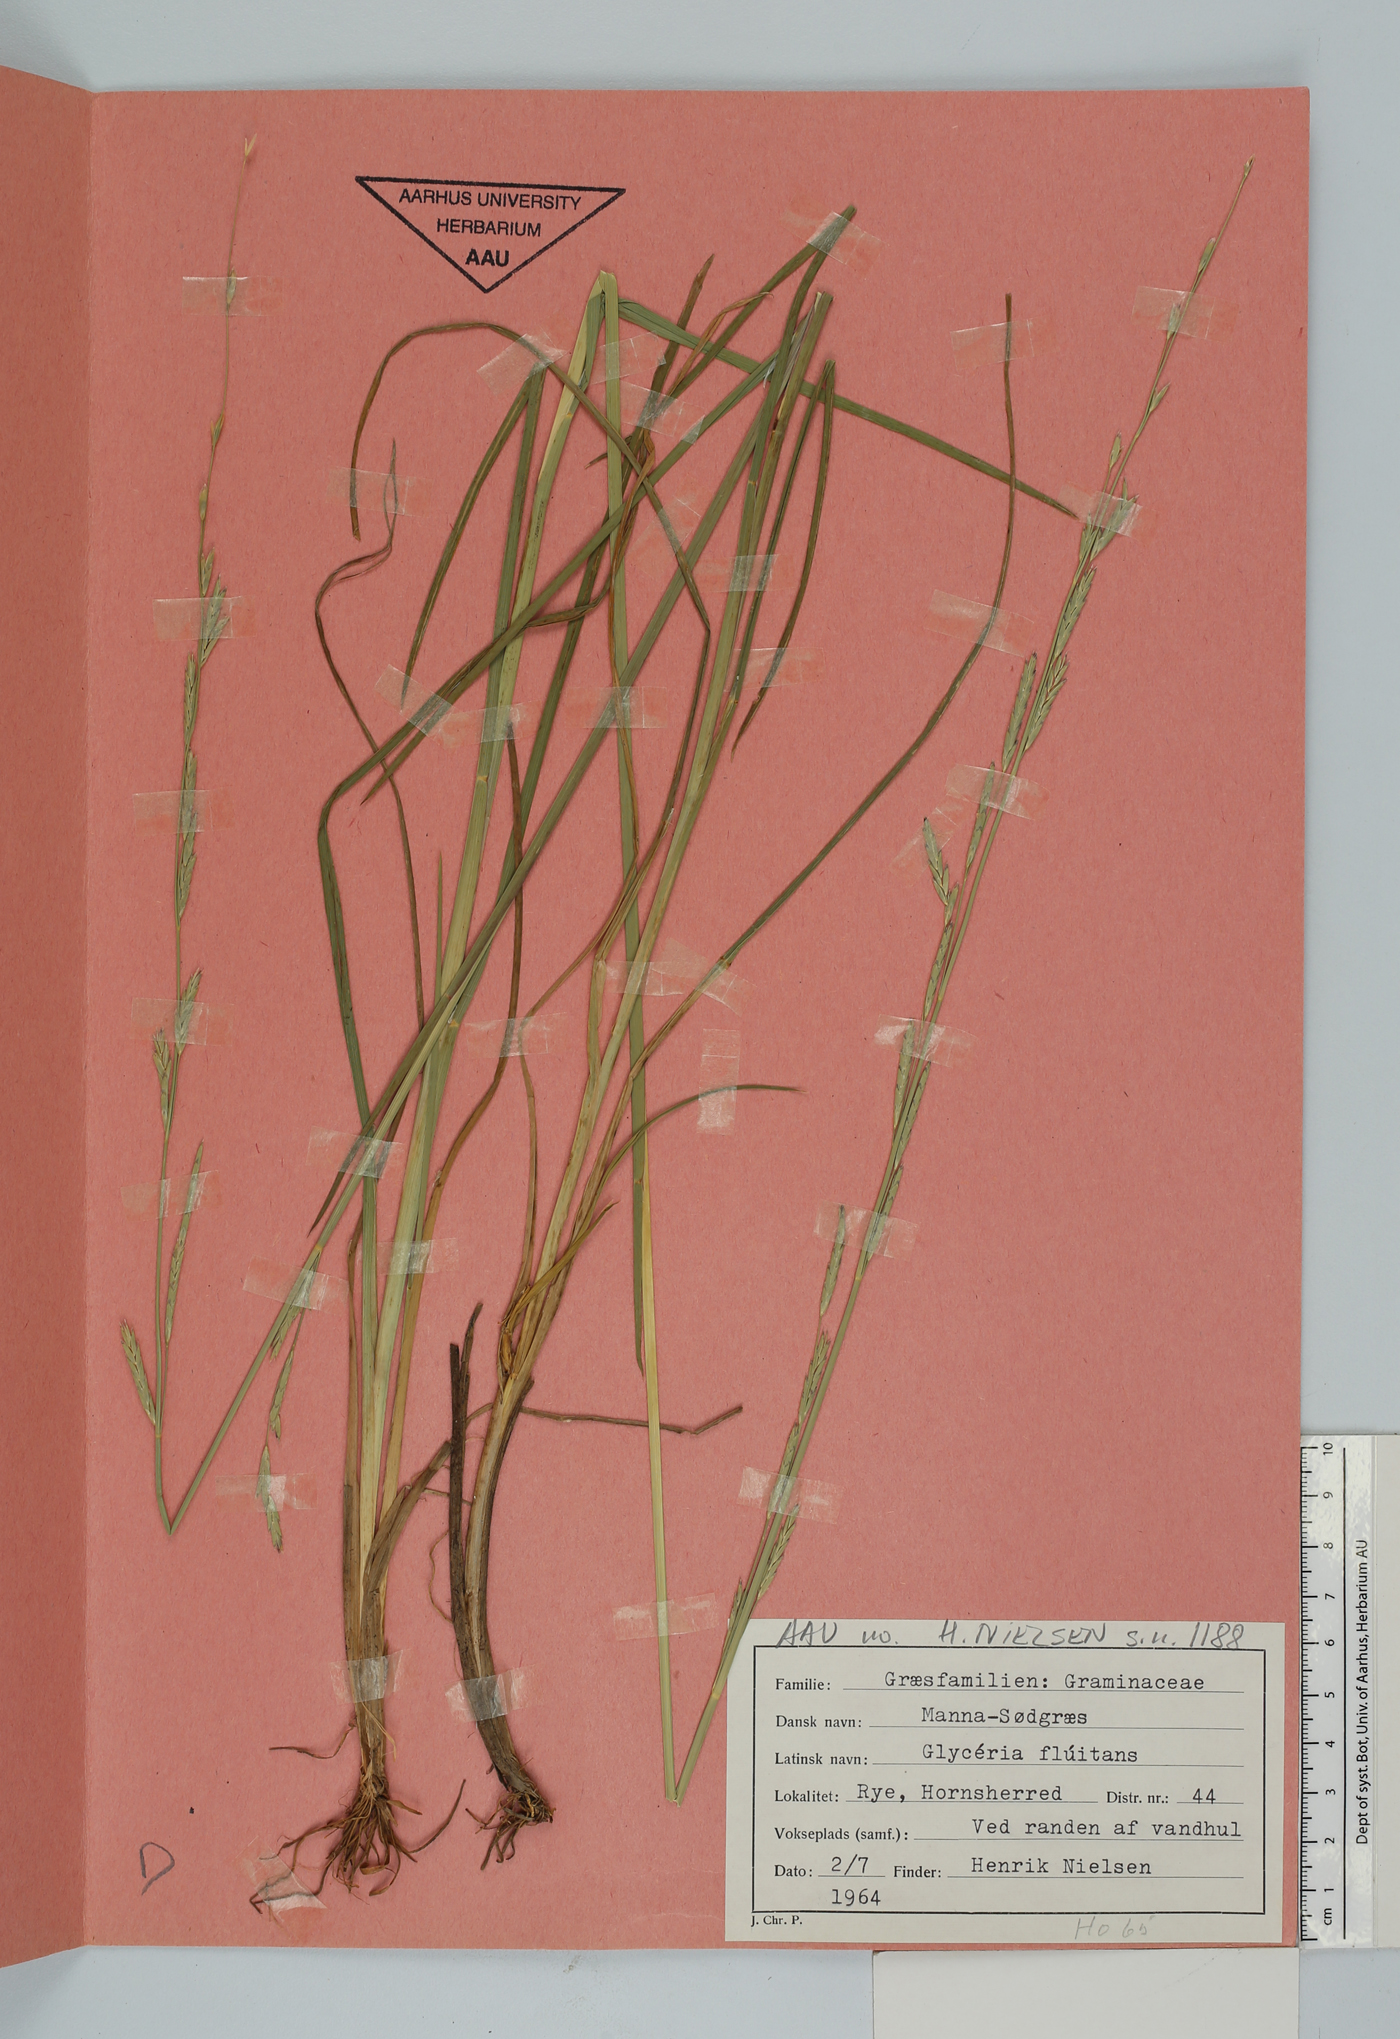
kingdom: Plantae
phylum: Tracheophyta
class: Liliopsida
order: Poales
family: Poaceae
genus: Glyceria
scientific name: Glyceria fluitans
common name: Floating sweet-grass
